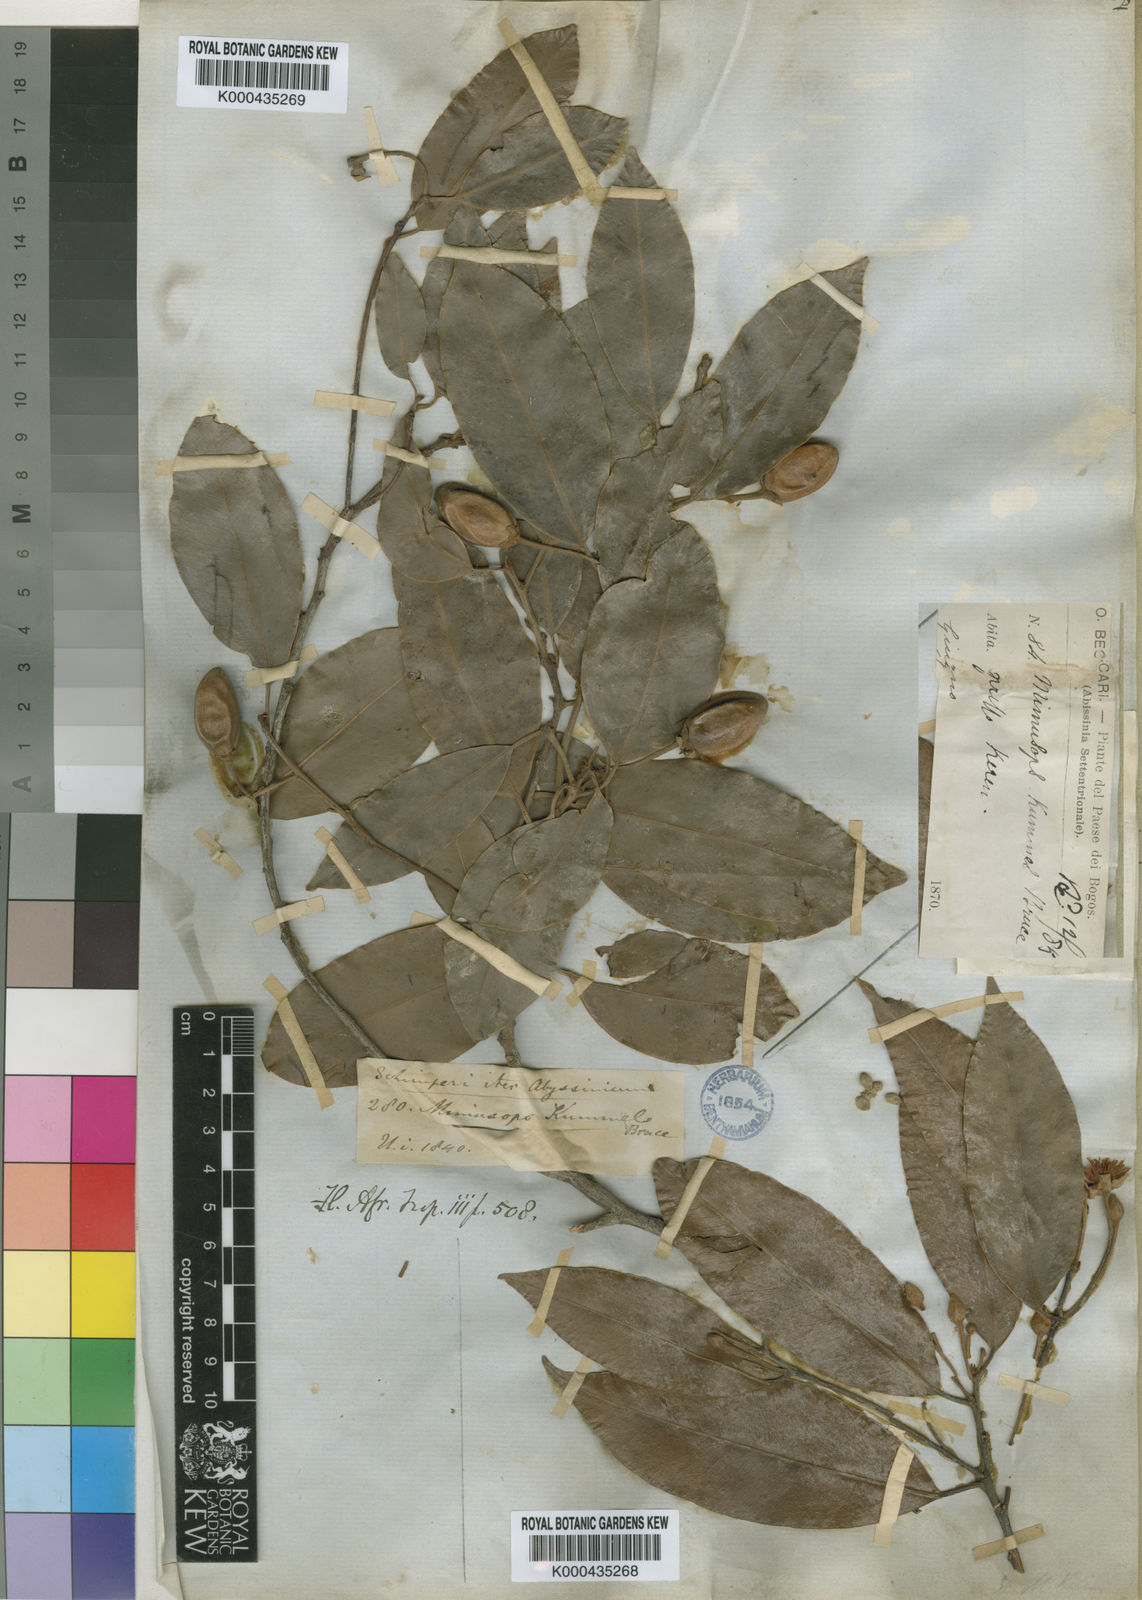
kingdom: Plantae
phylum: Tracheophyta
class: Magnoliopsida
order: Ericales
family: Sapotaceae
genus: Mimusops
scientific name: Mimusops kummel
